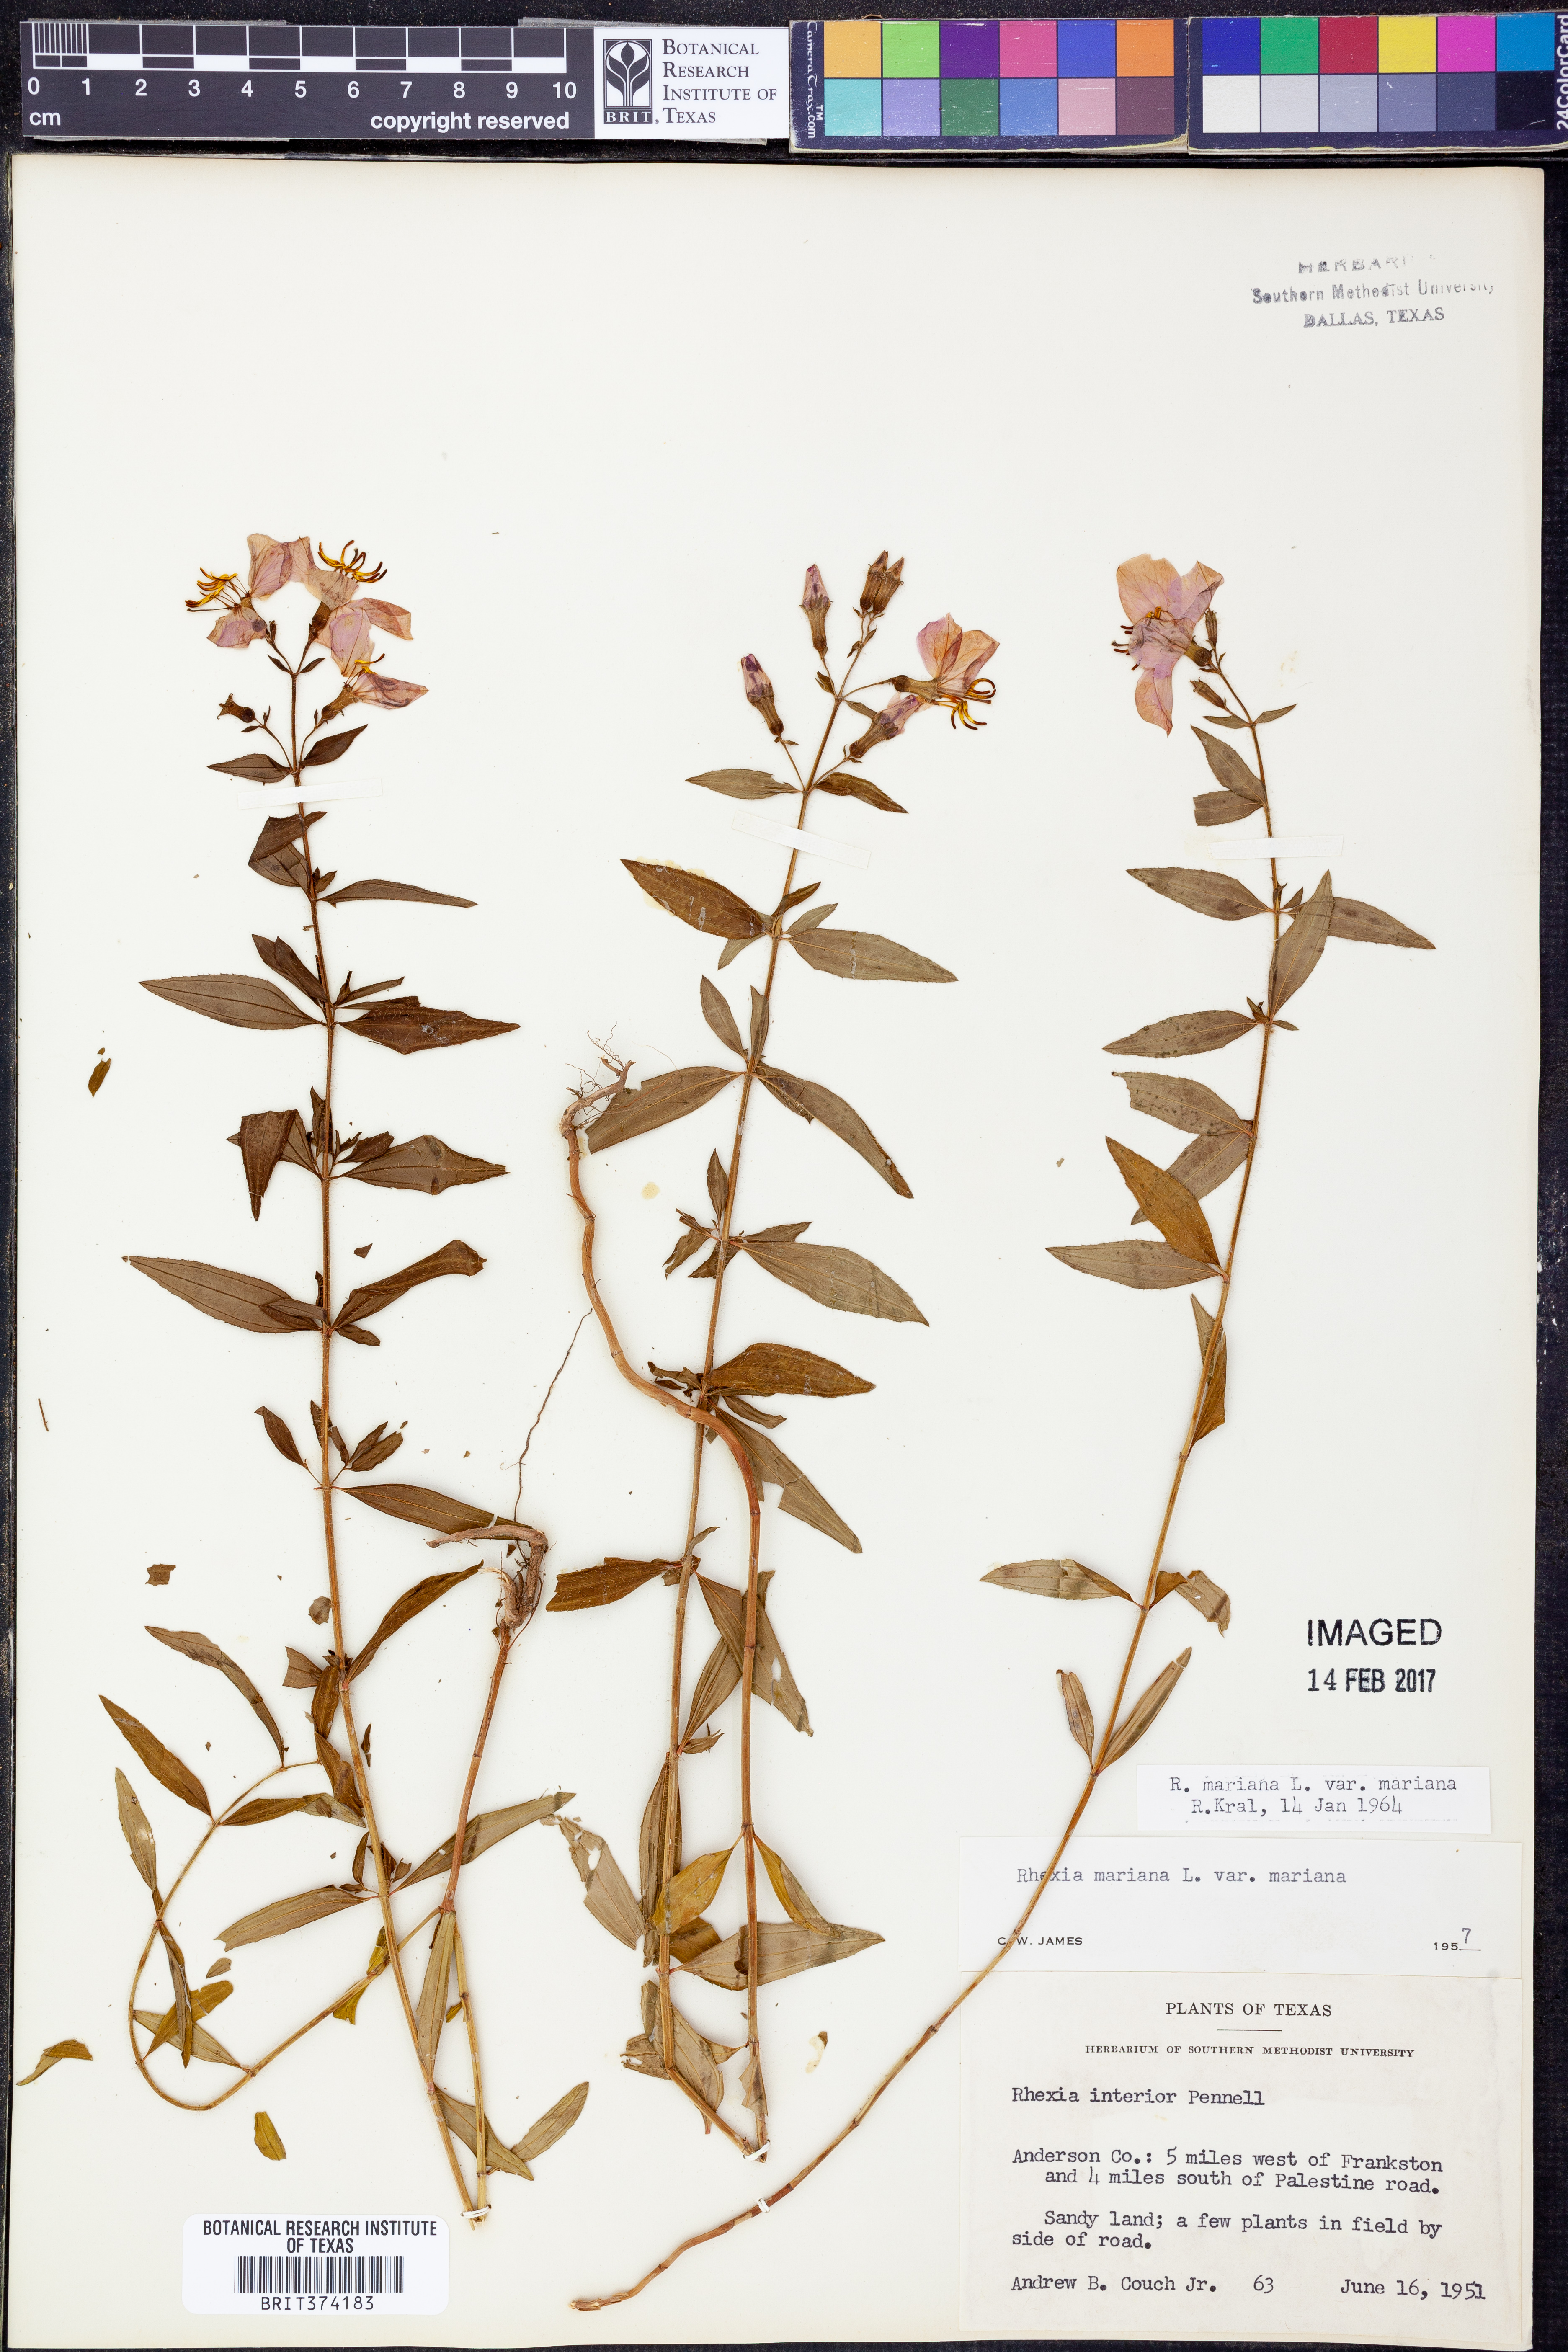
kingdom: Plantae
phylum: Tracheophyta
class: Magnoliopsida
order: Myrtales
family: Melastomataceae
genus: Rhexia
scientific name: Rhexia mariana
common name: Dull meadow-pitcher
